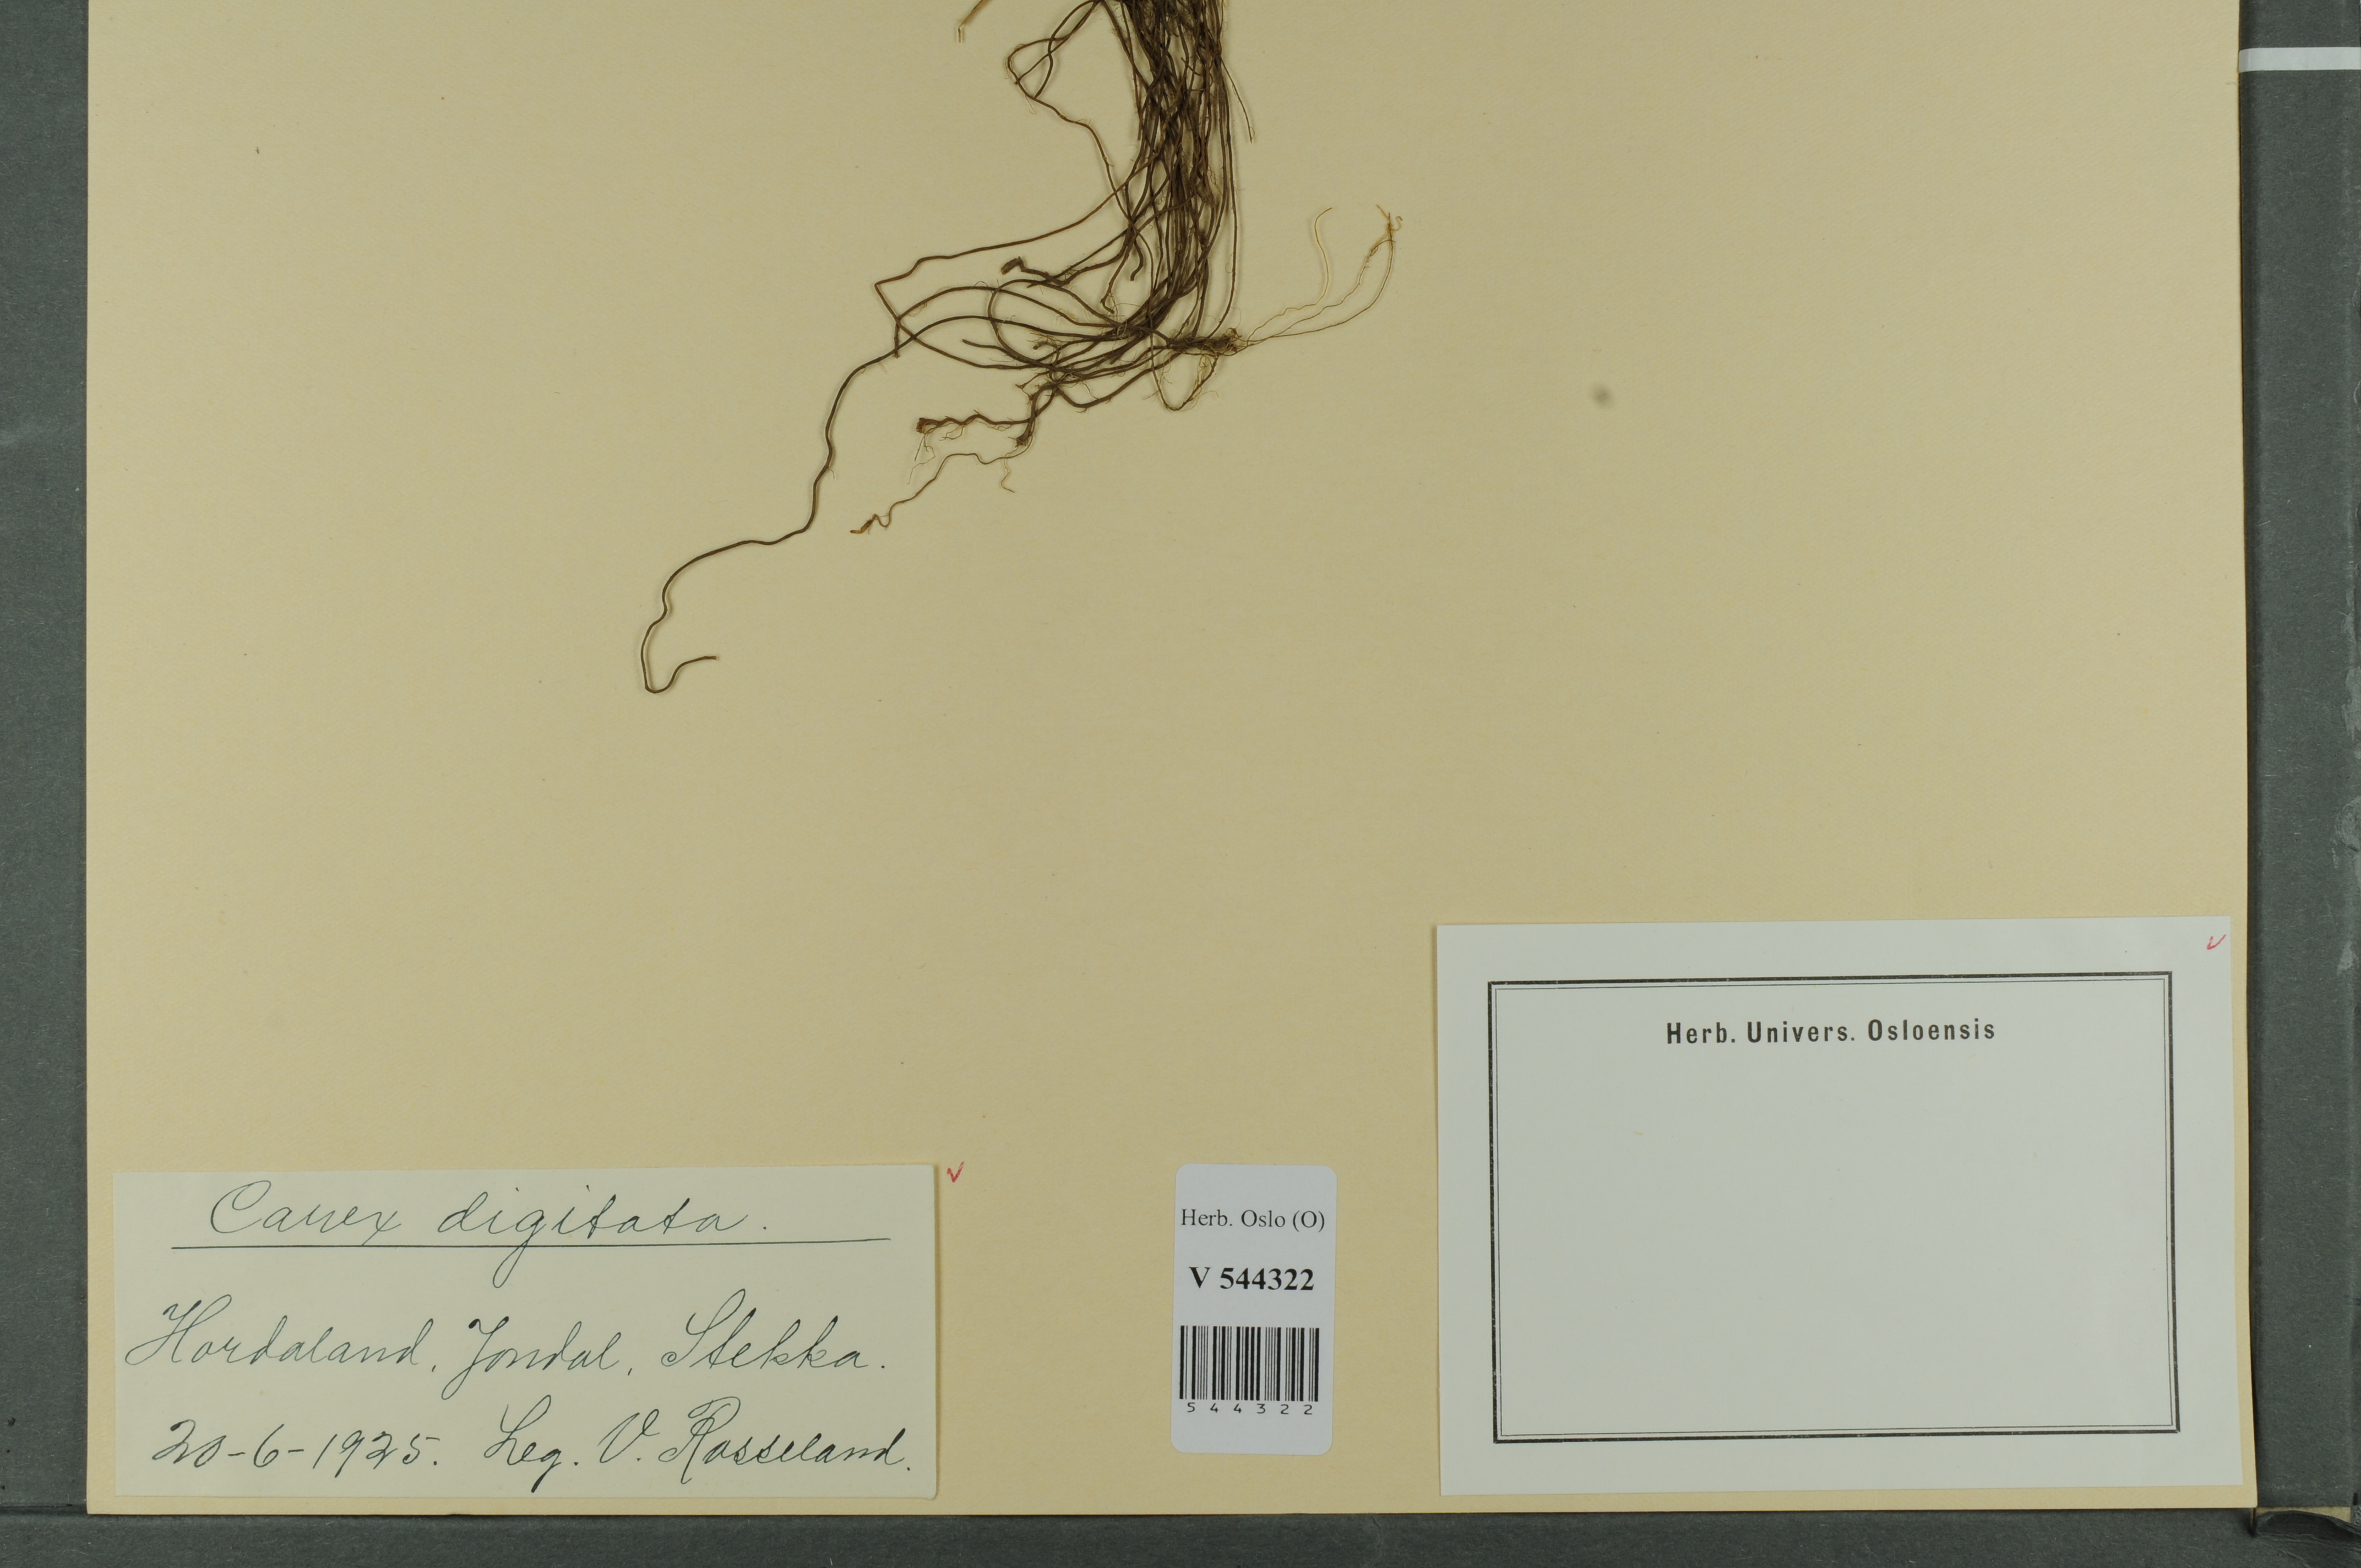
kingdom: Plantae
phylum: Tracheophyta
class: Liliopsida
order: Poales
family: Cyperaceae
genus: Carex
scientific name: Carex digitata
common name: Fingered sedge
